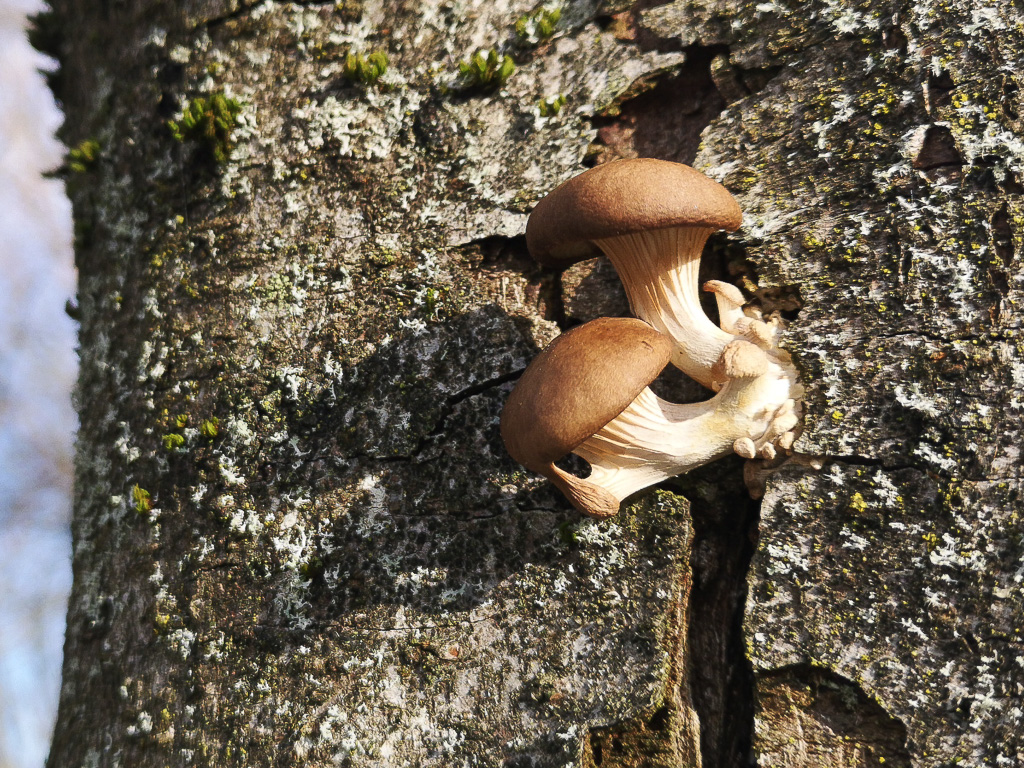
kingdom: Fungi
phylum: Basidiomycota
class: Agaricomycetes
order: Agaricales
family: Pleurotaceae
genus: Pleurotus
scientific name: Pleurotus ostreatus
